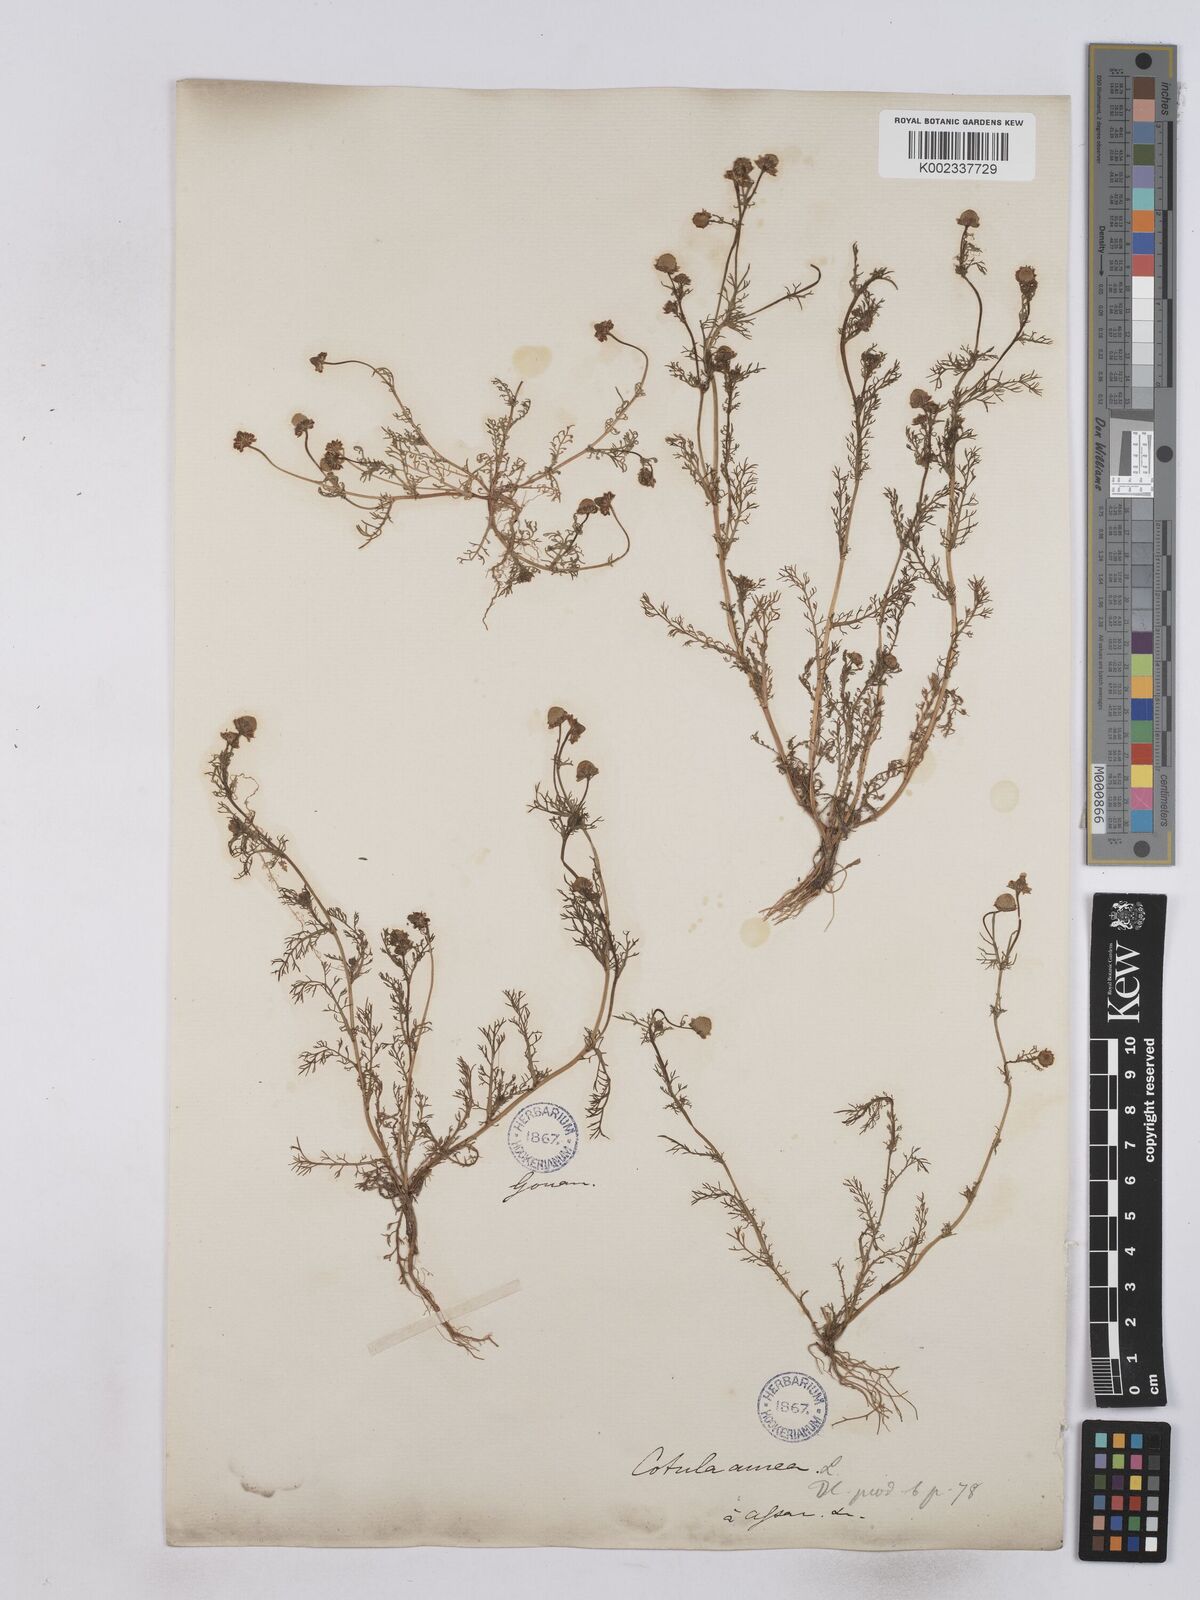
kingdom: Plantae
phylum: Tracheophyta
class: Magnoliopsida
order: Asterales
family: Asteraceae
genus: Matricaria
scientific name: Matricaria aurea
